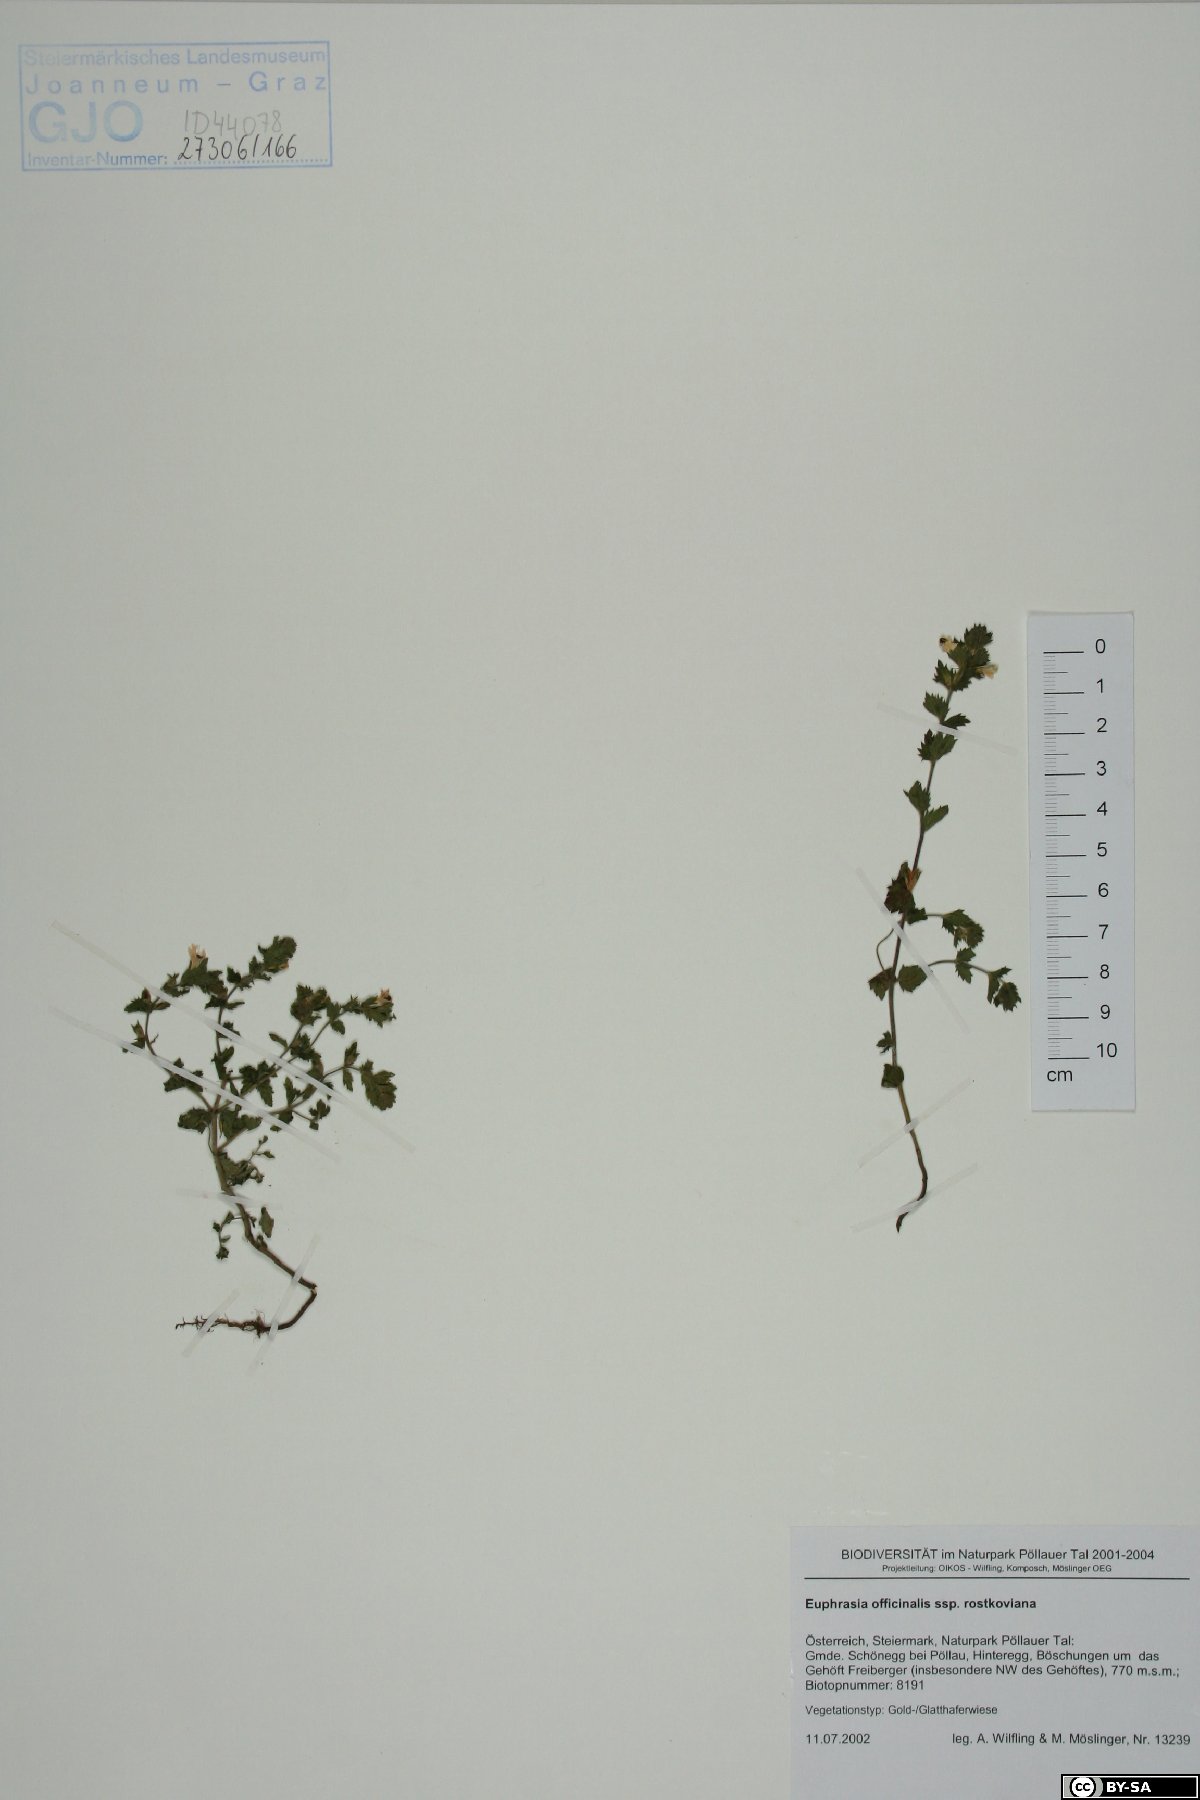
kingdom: Plantae
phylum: Tracheophyta
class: Magnoliopsida
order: Lamiales
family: Orobanchaceae
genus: Euphrasia
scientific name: Euphrasia officinalis
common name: Eyebright
